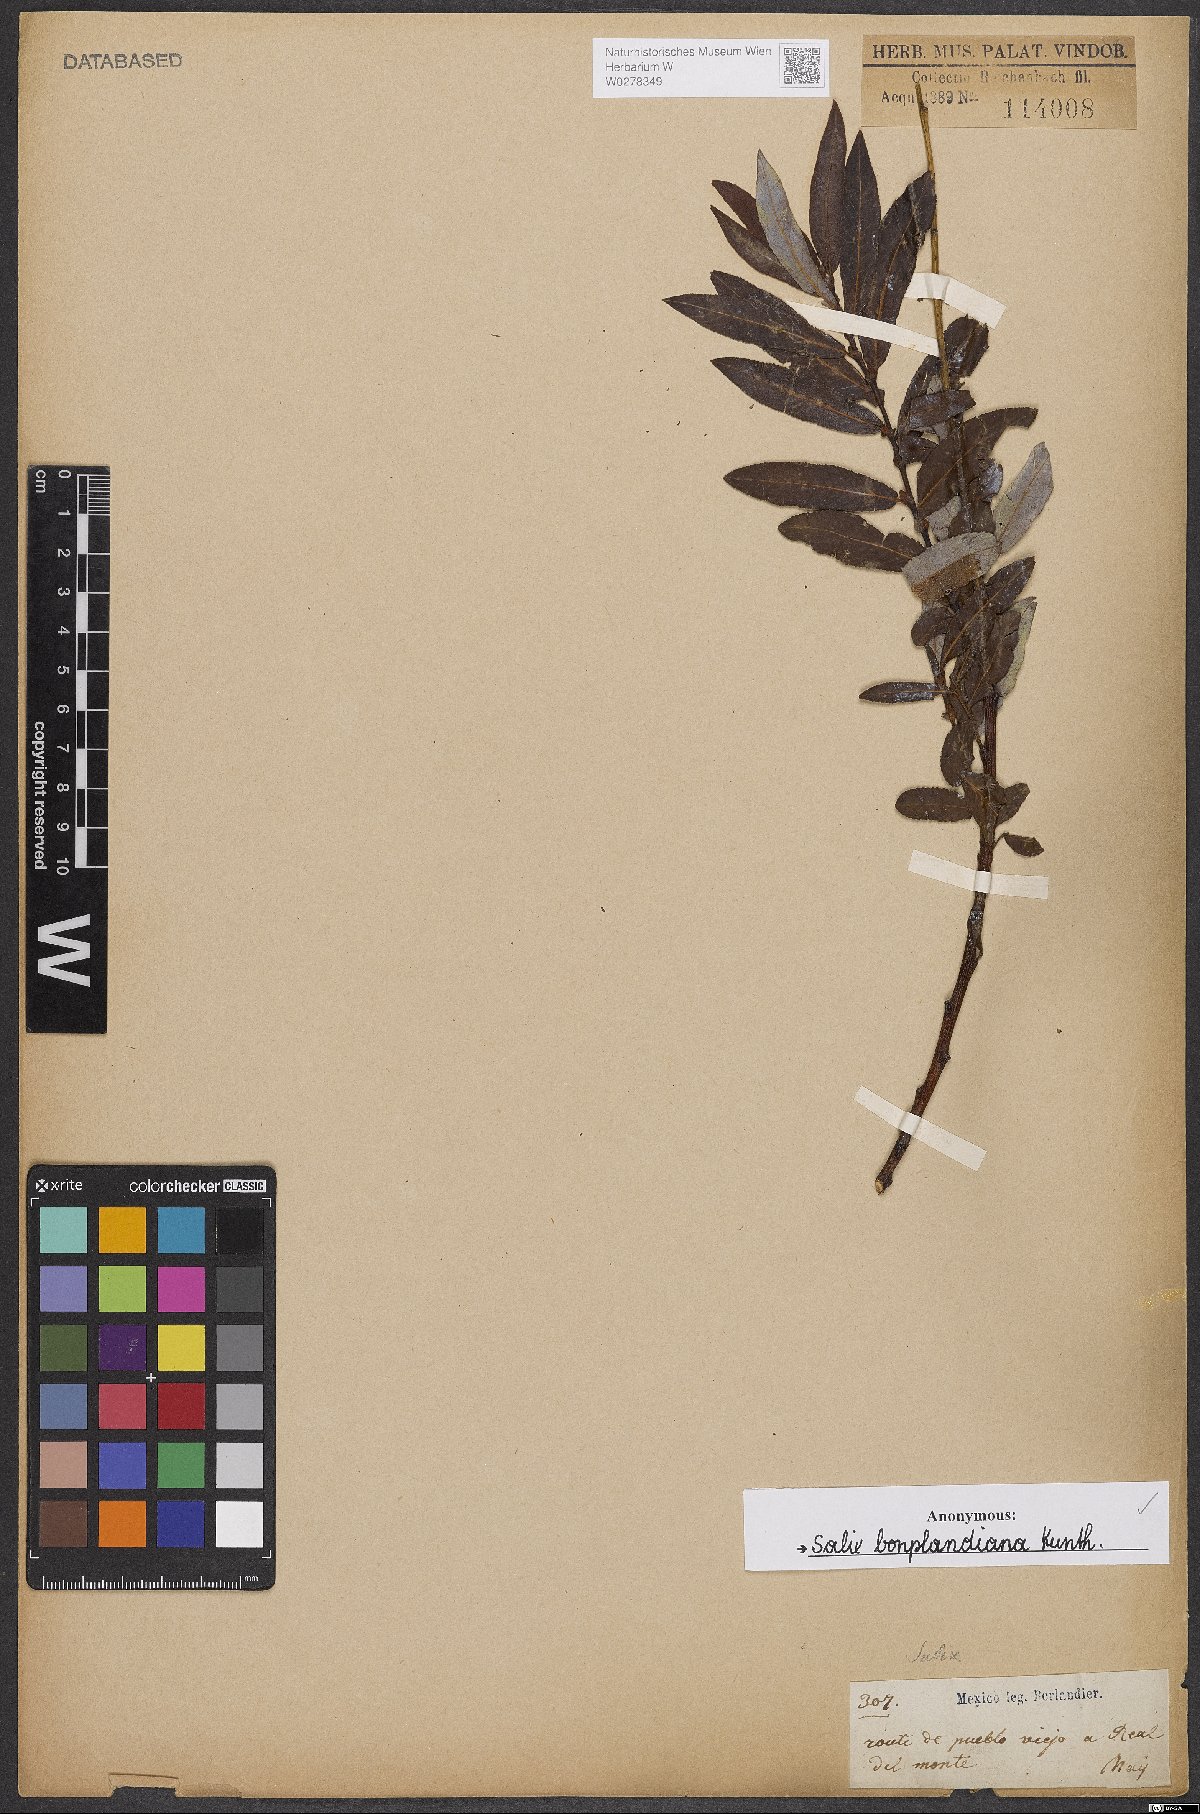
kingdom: Plantae
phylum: Tracheophyta
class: Magnoliopsida
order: Malpighiales
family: Salicaceae
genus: Salix
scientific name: Salix bonplandiana
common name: Bonpland’s willow
